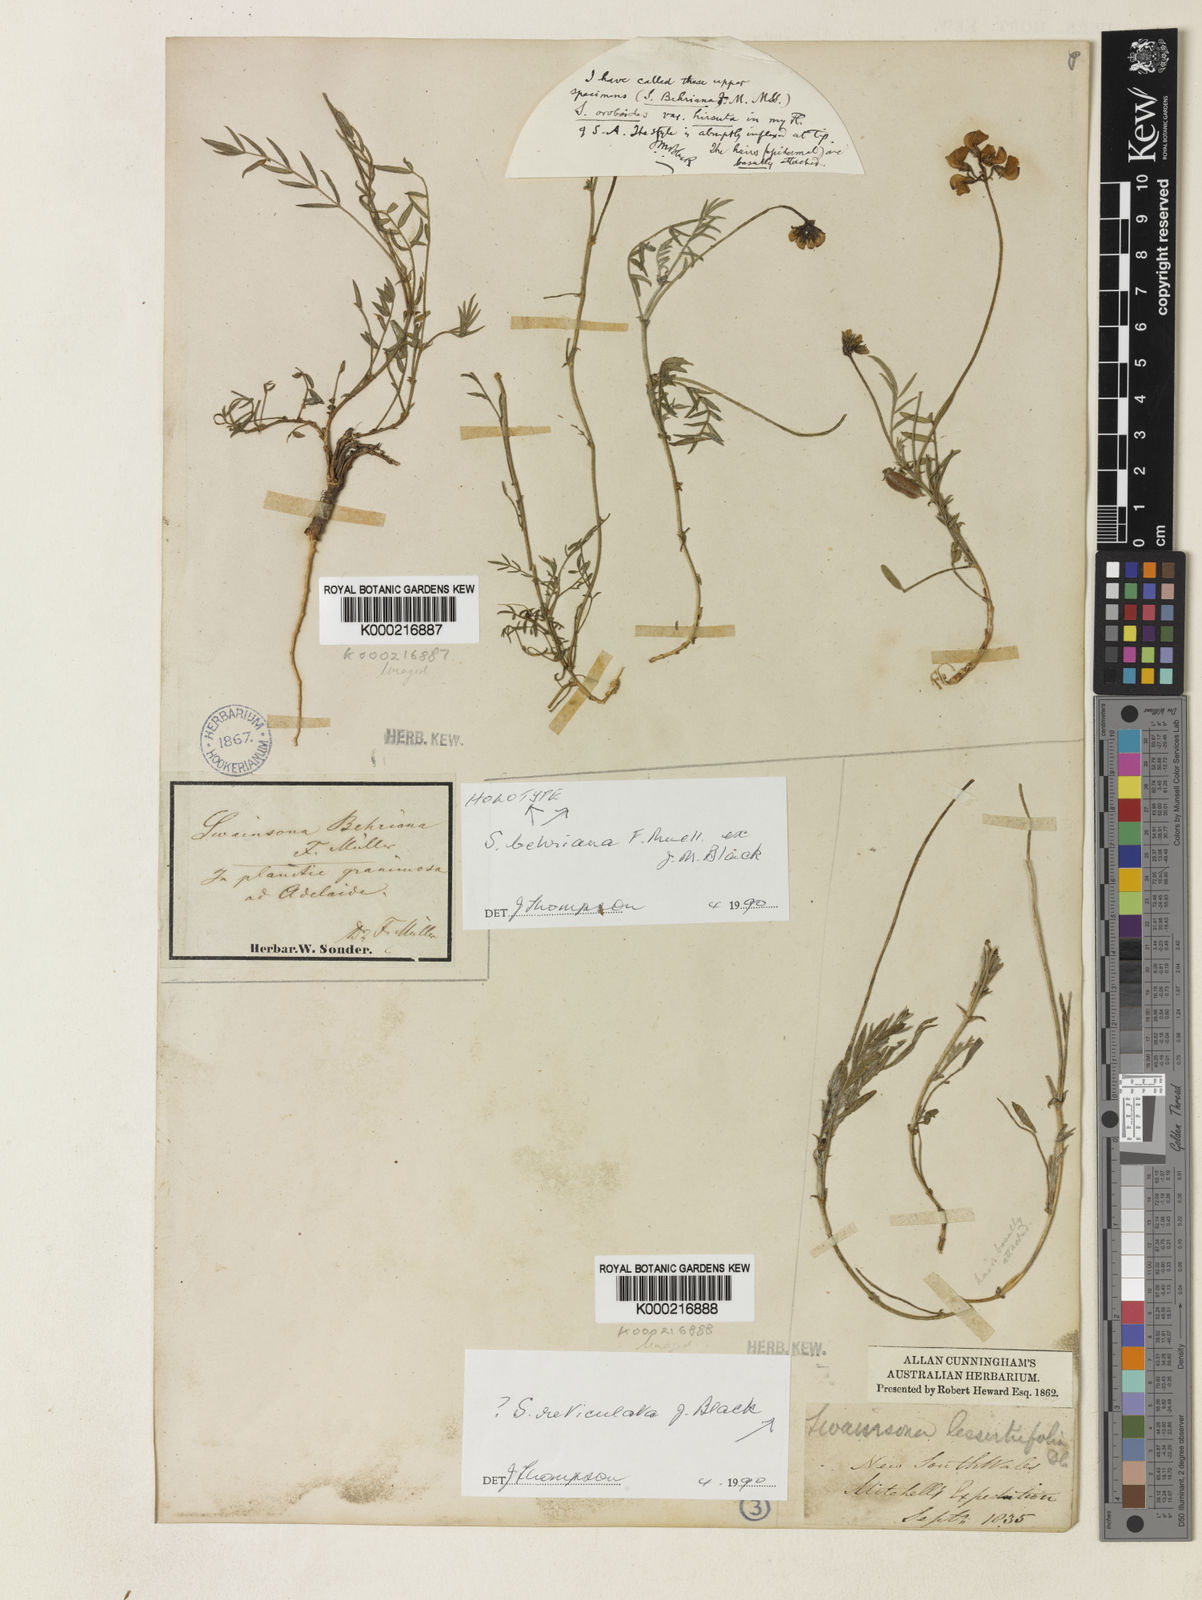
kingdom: Plantae
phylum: Tracheophyta
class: Magnoliopsida
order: Fabales
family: Fabaceae
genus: Swainsona
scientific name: Swainsona behriana
